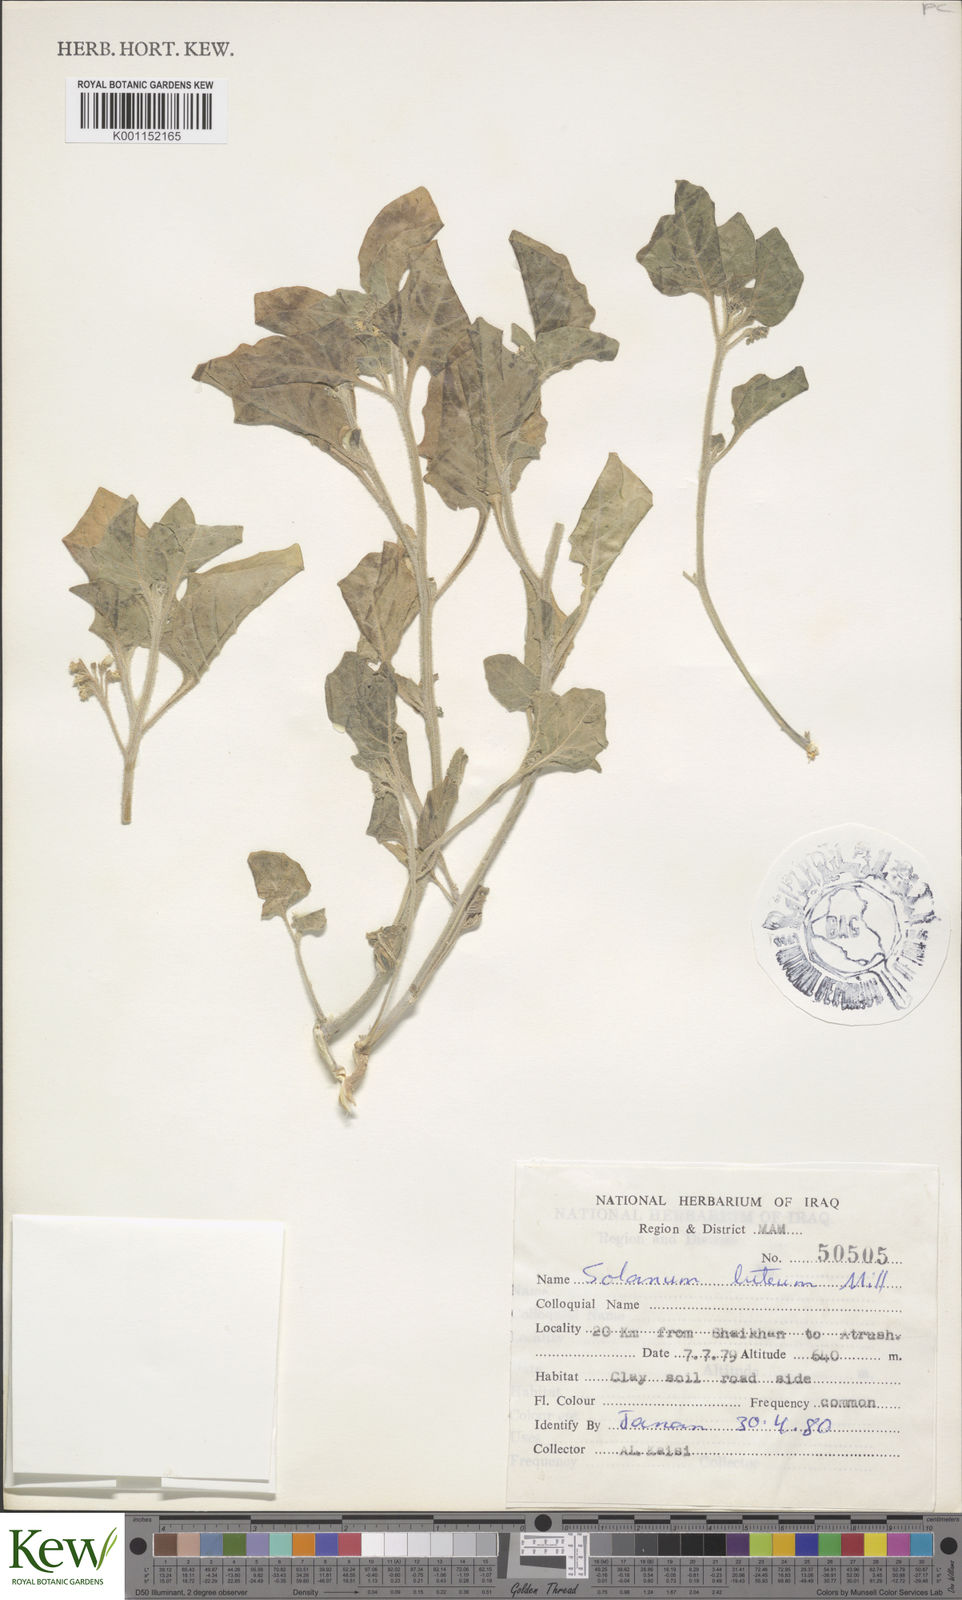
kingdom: Plantae
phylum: Tracheophyta
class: Magnoliopsida
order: Solanales
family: Solanaceae
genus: Solanum
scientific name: Solanum villosum
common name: Red nightshade
